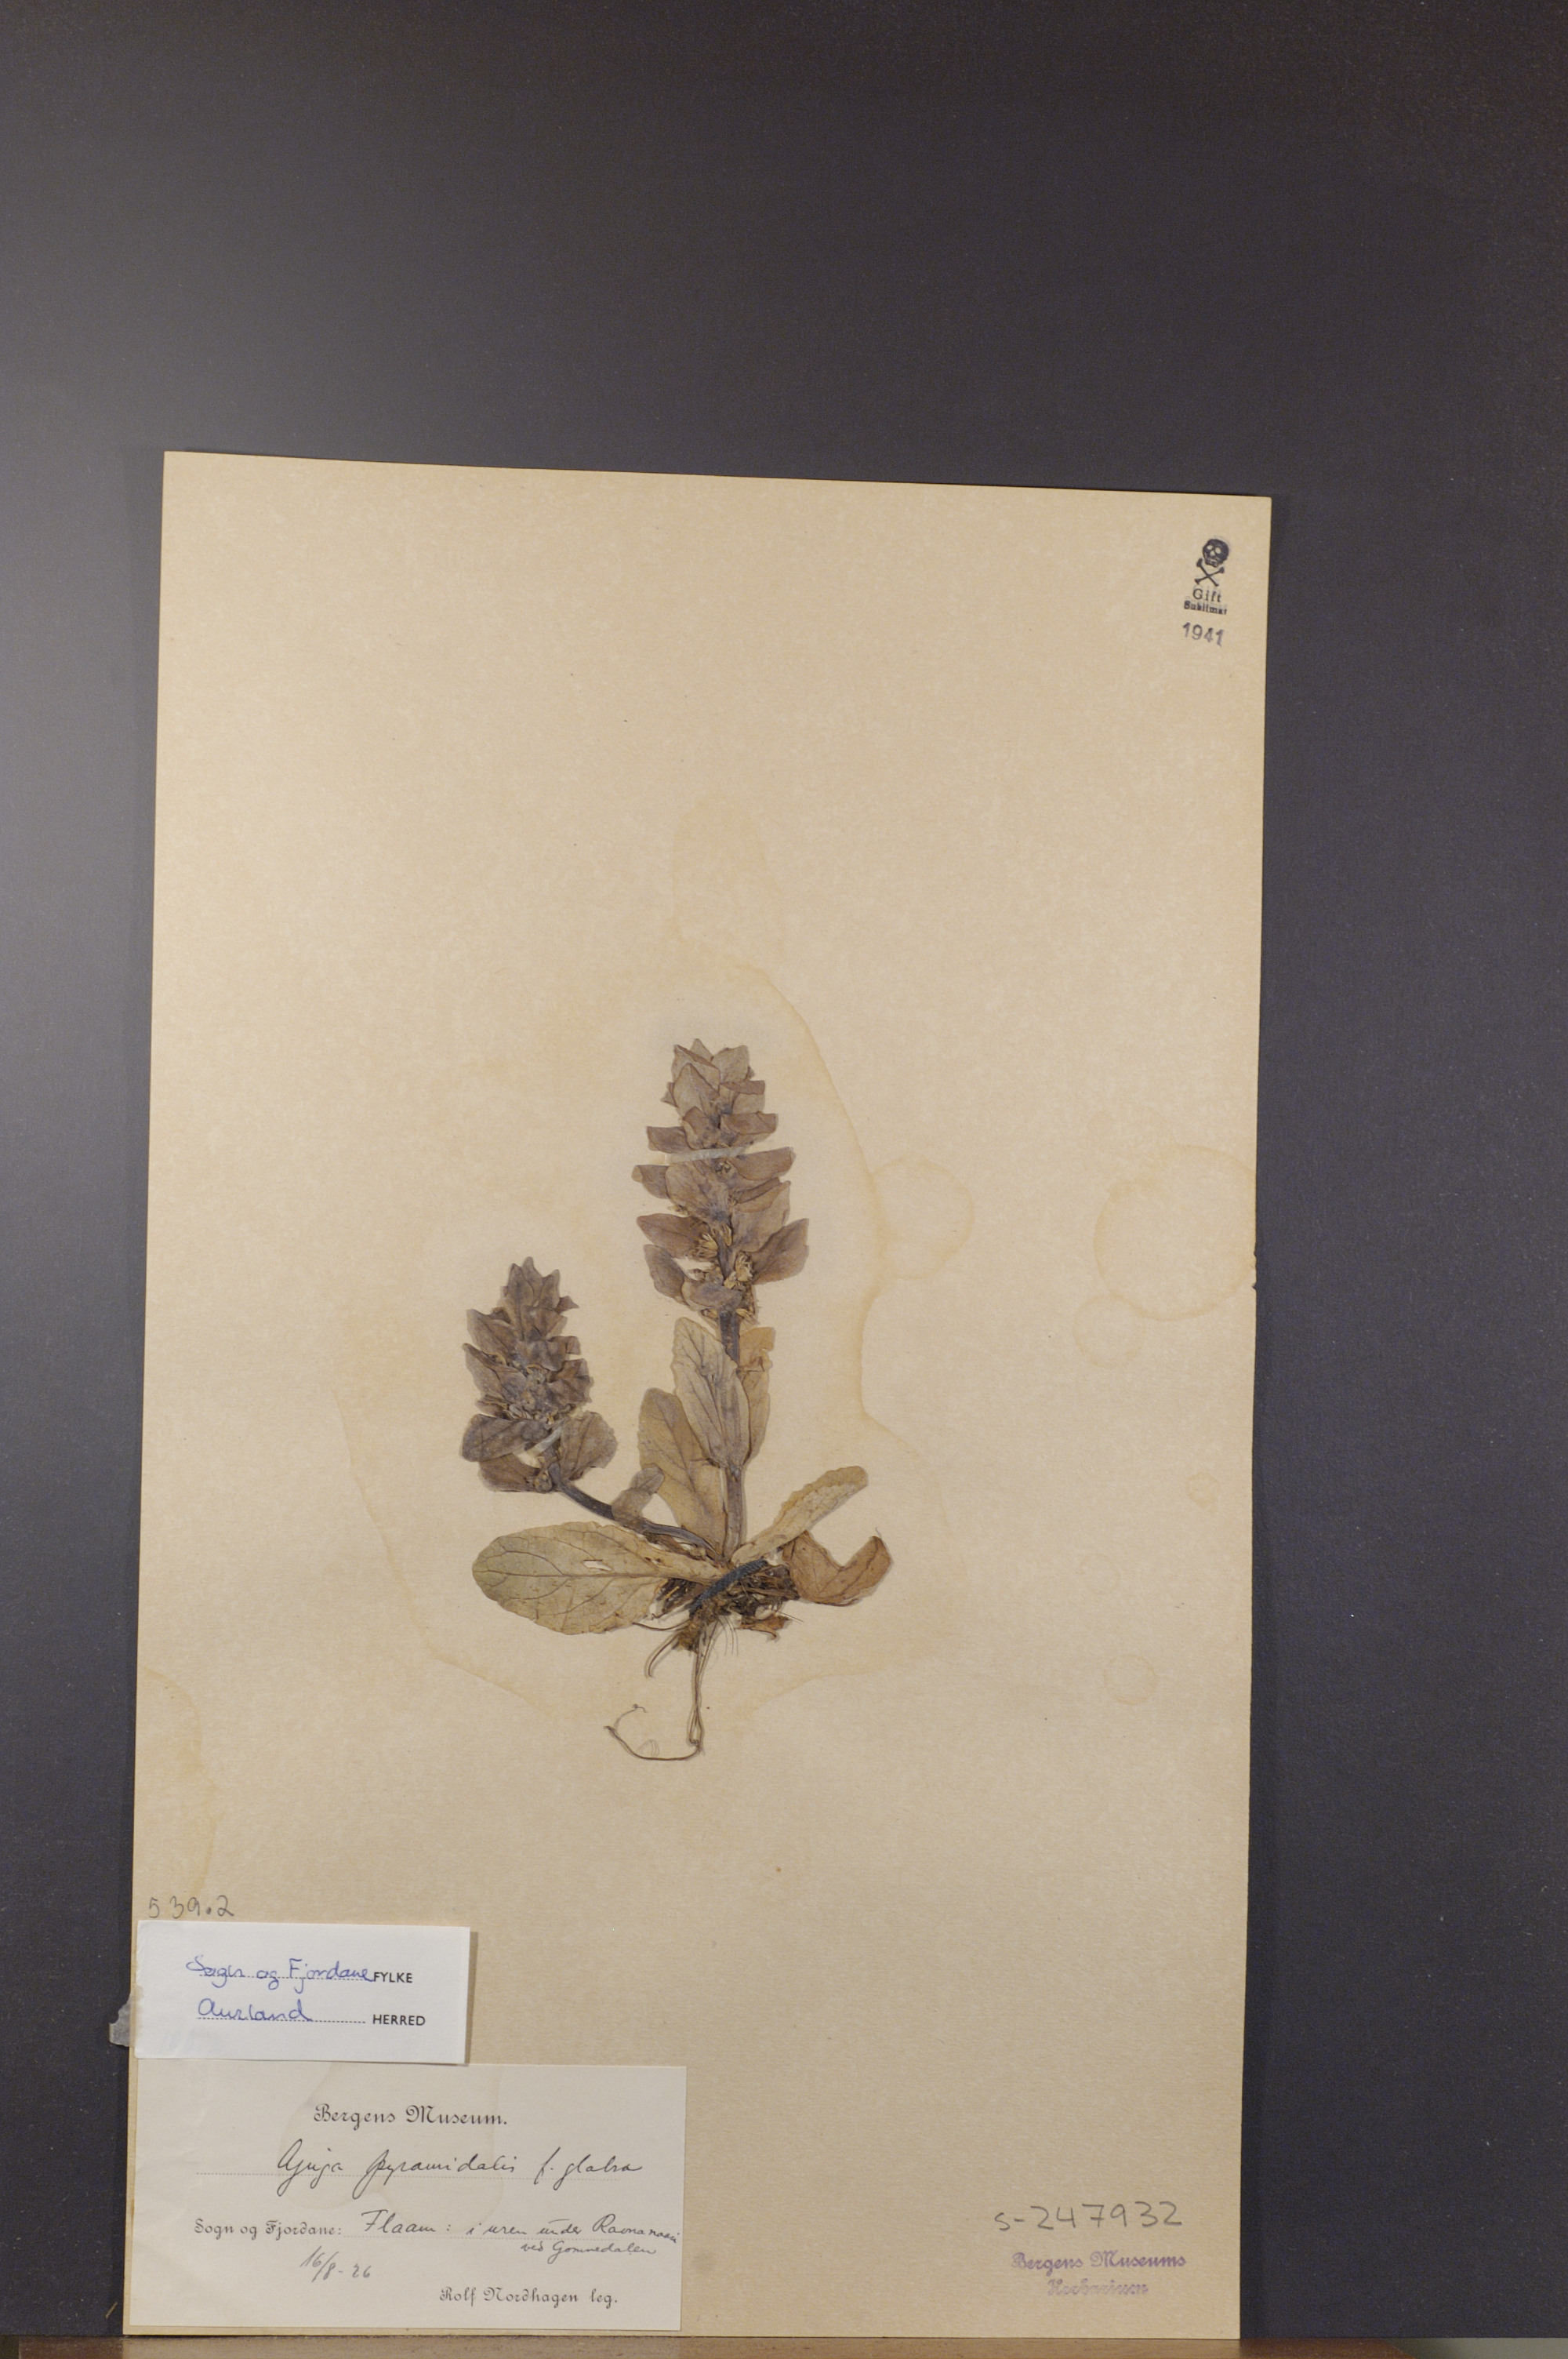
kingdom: Plantae
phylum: Tracheophyta
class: Magnoliopsida
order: Lamiales
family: Lamiaceae
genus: Ajuga
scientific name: Ajuga pyramidalis
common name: Pyramid bugle
